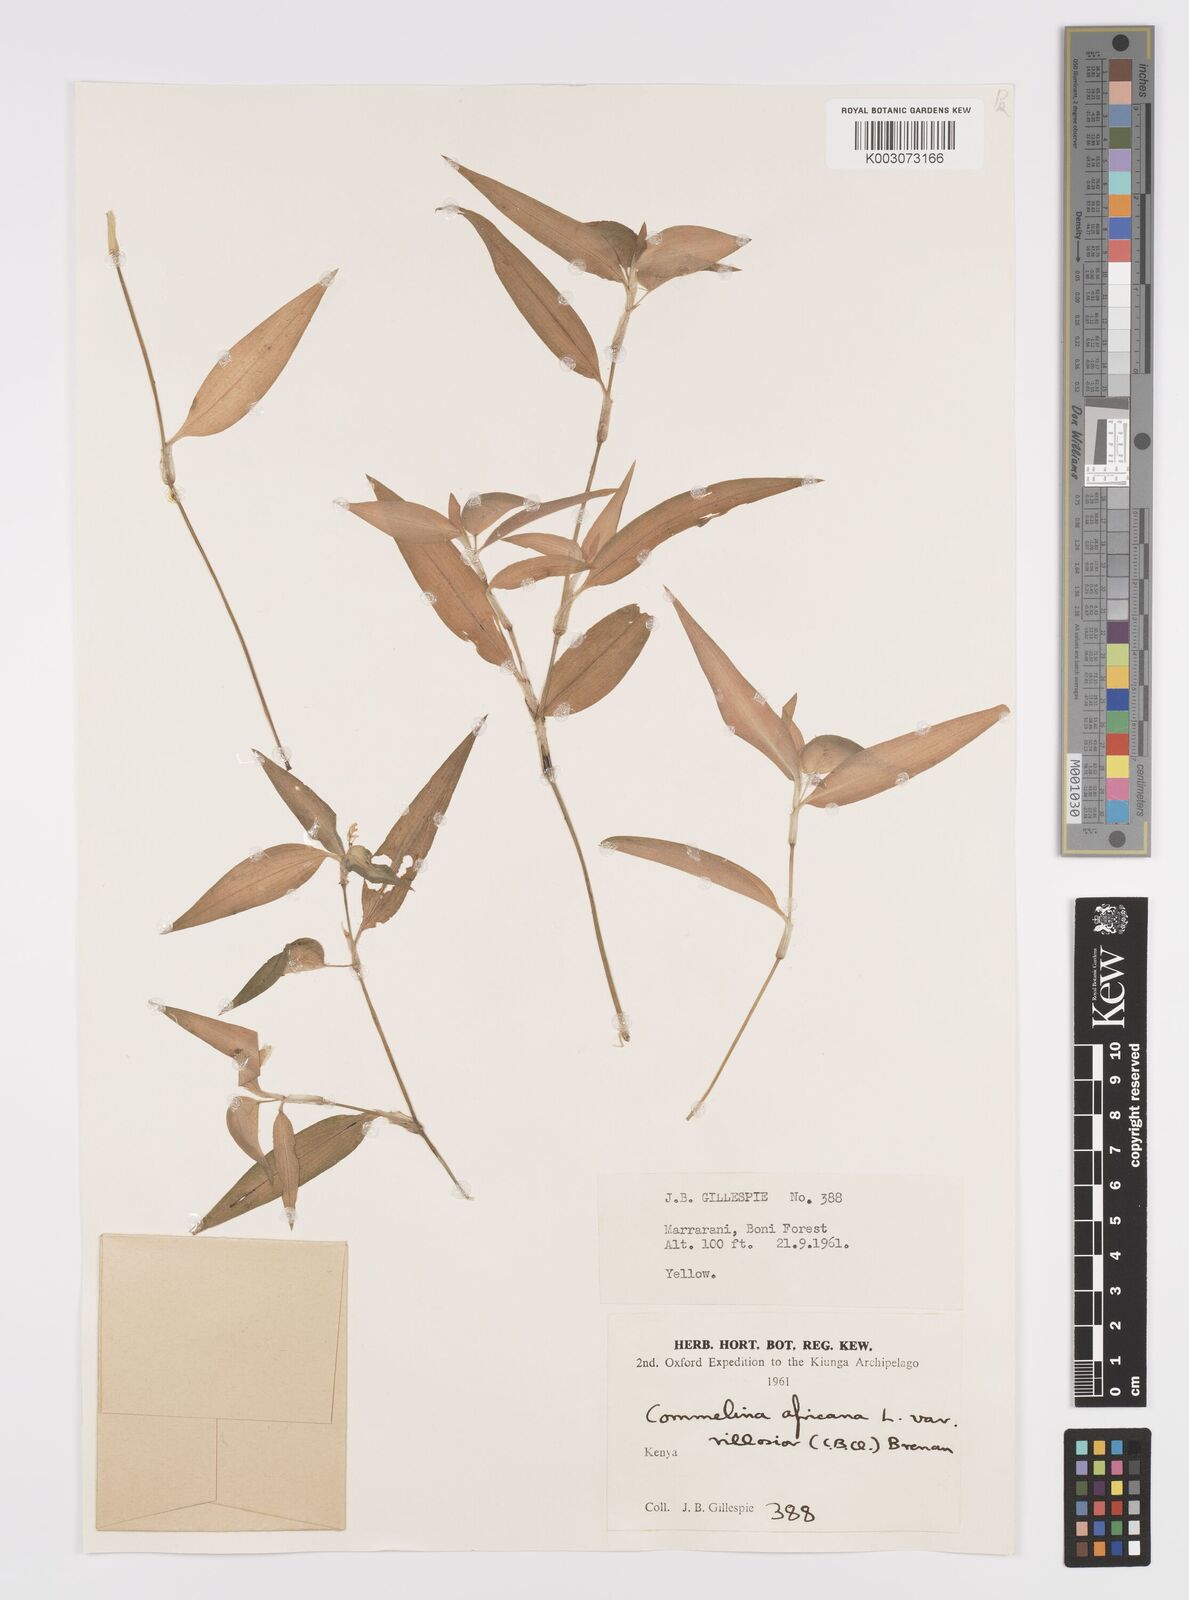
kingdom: Plantae
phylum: Tracheophyta
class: Liliopsida
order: Commelinales
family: Commelinaceae
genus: Commelina
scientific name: Commelina africana
